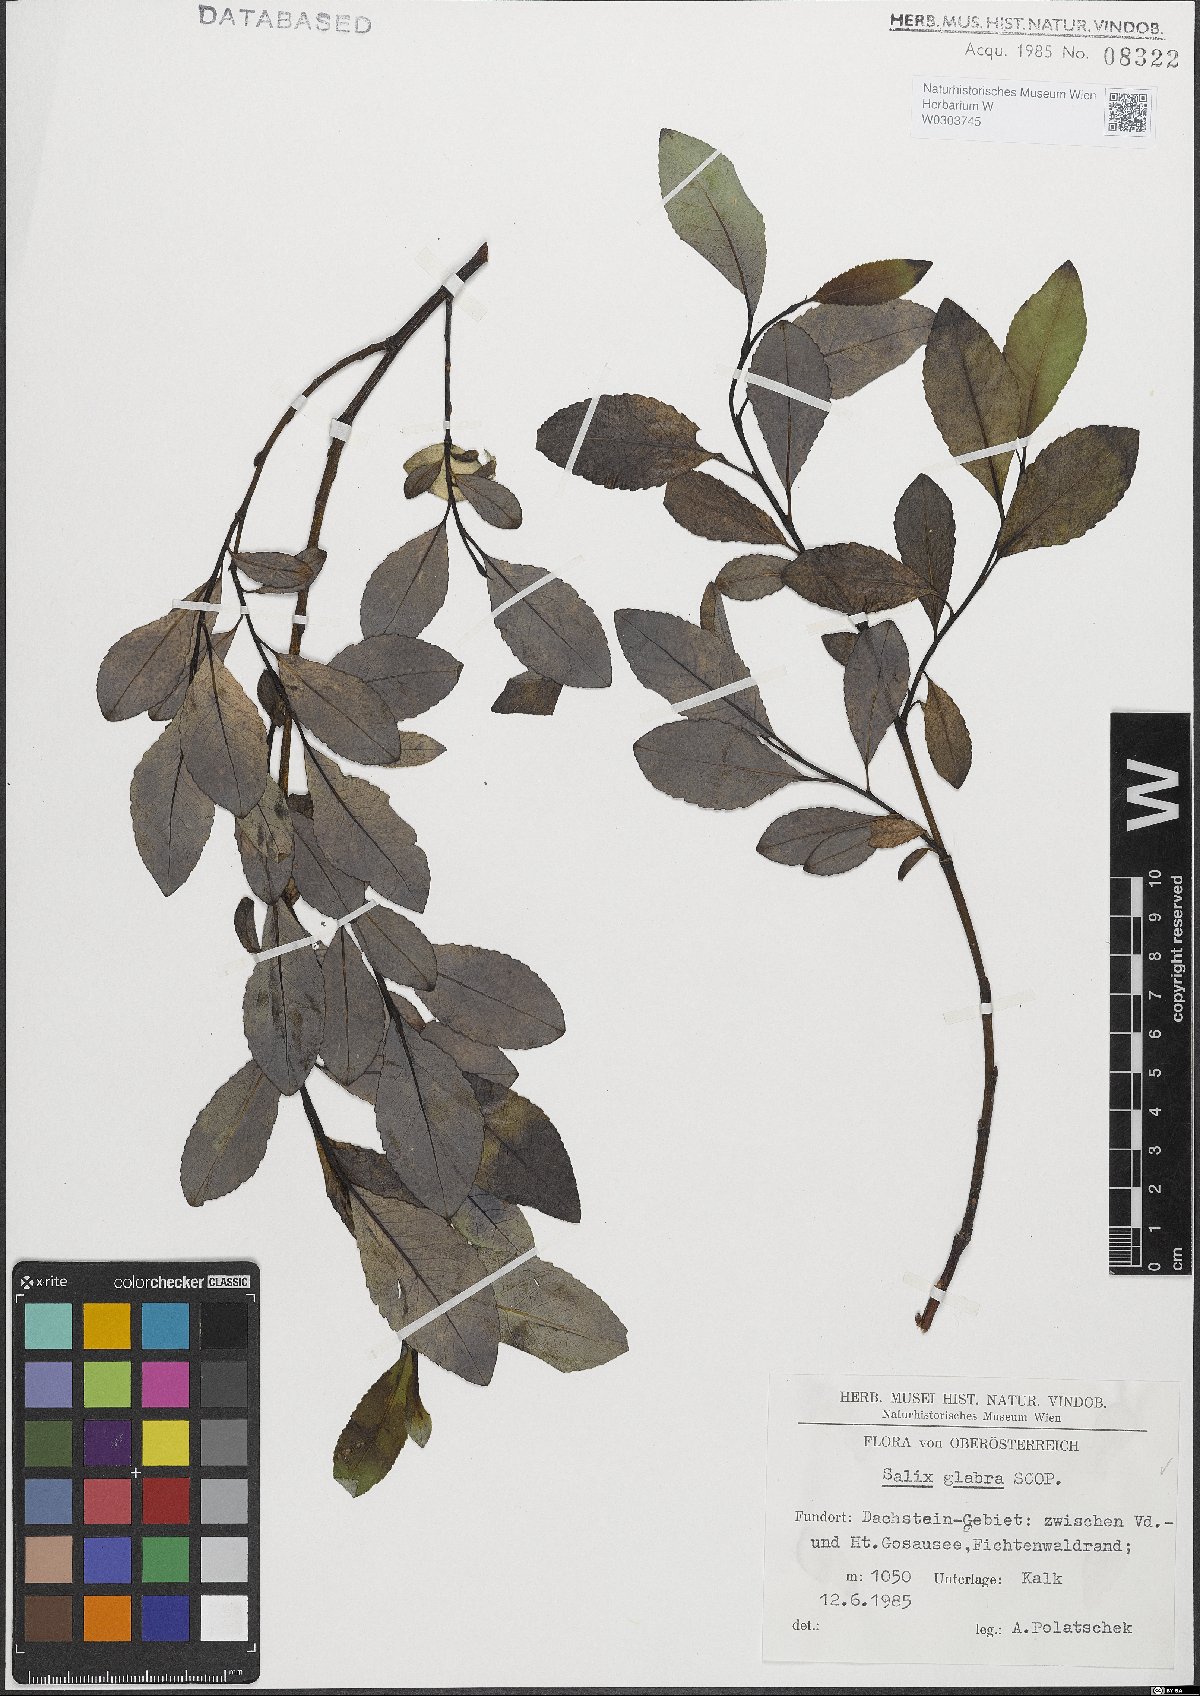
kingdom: Plantae
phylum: Tracheophyta
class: Magnoliopsida
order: Malpighiales
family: Salicaceae
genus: Salix
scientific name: Salix glabra
